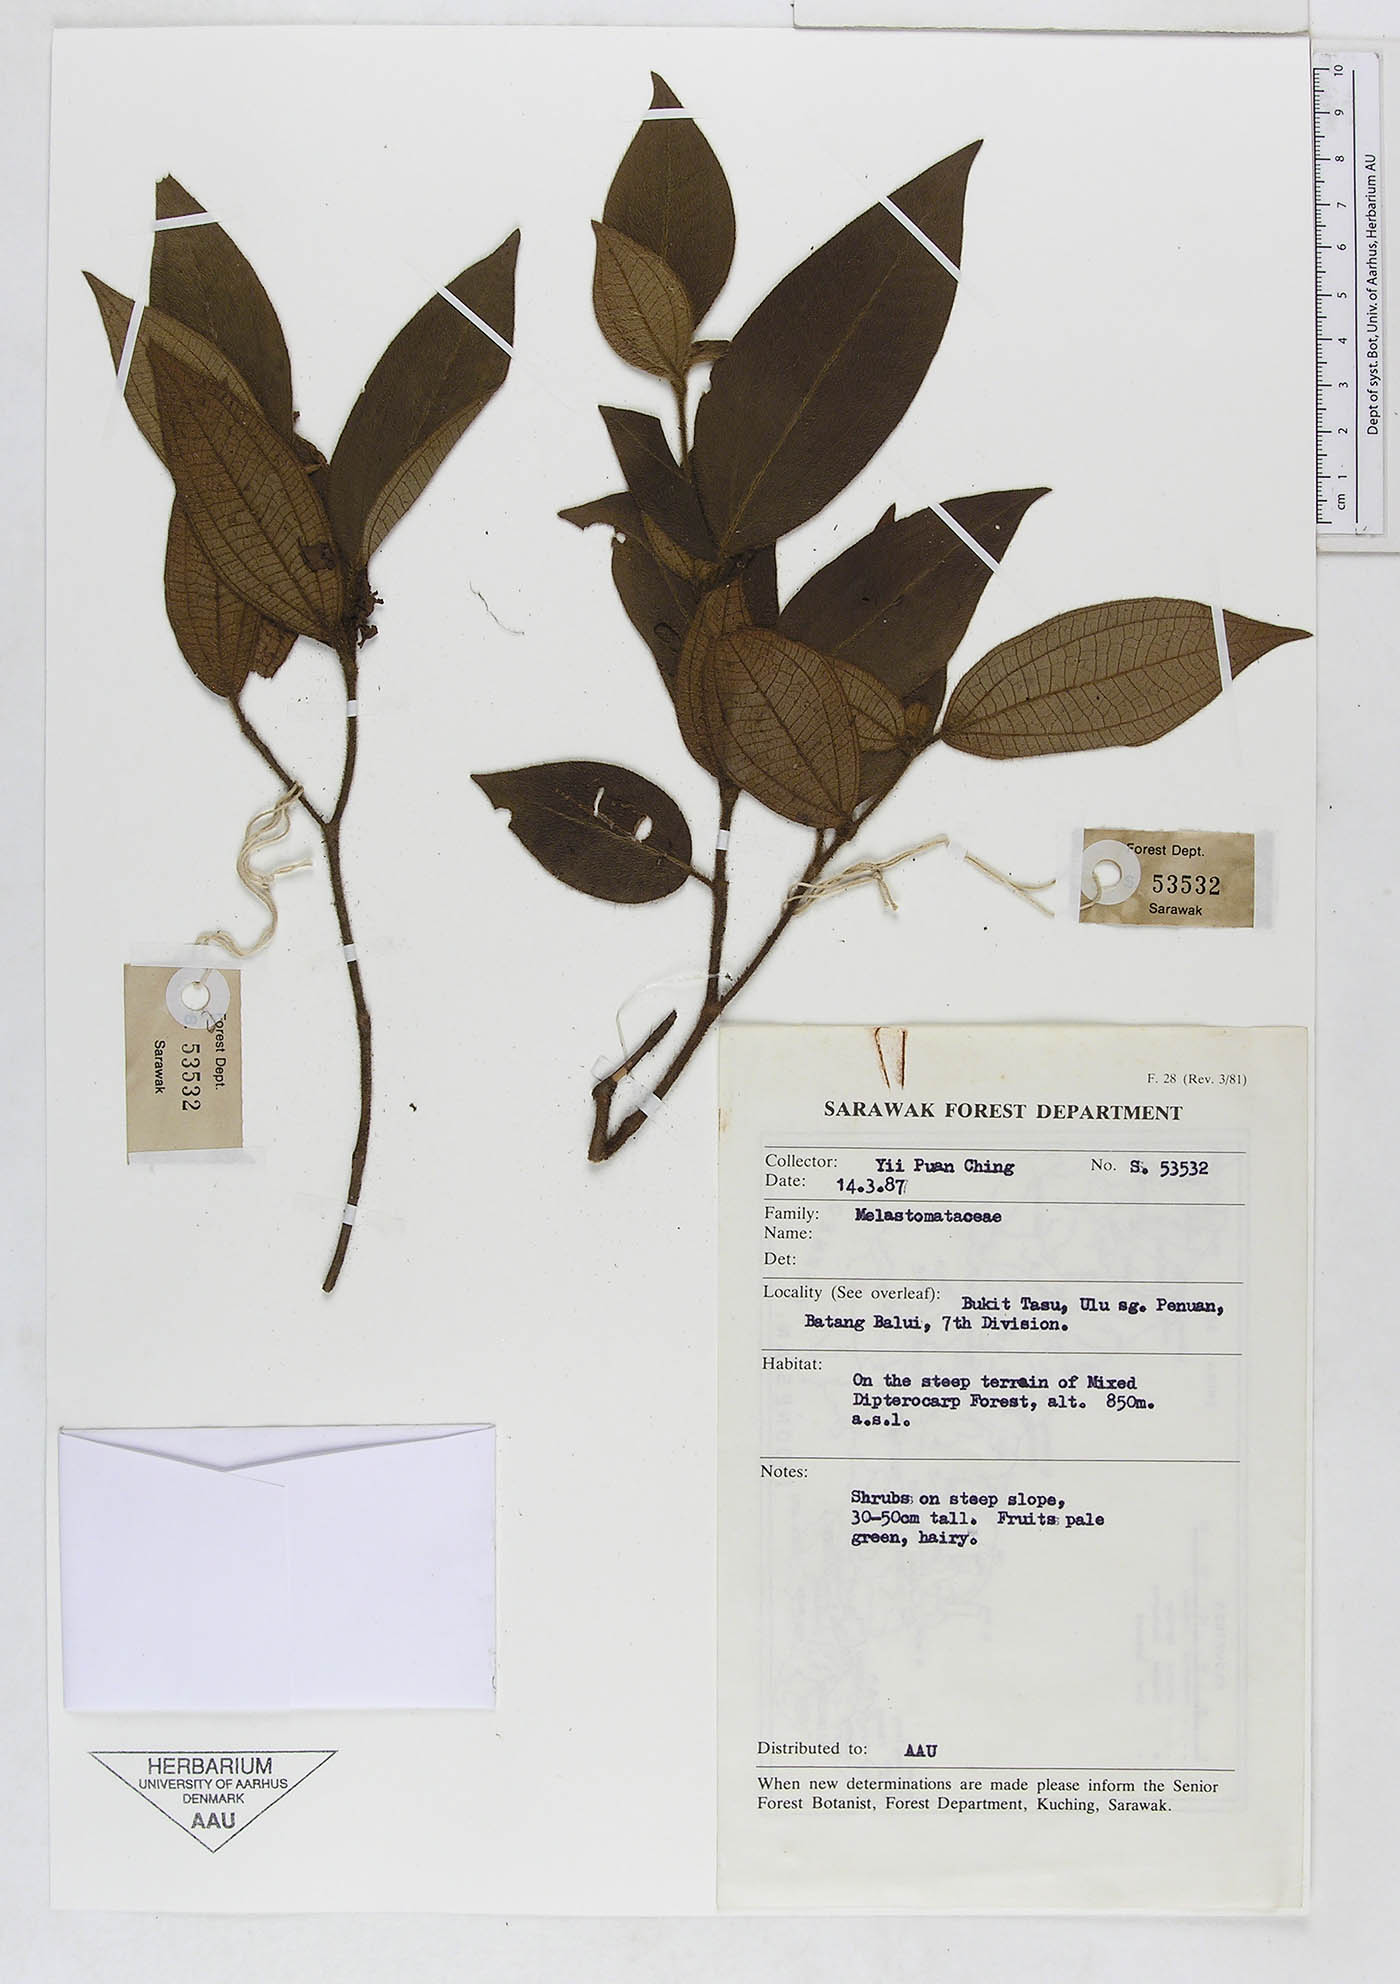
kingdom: Plantae
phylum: Tracheophyta
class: Magnoliopsida
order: Myrtales
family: Melastomataceae
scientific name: Melastomataceae
